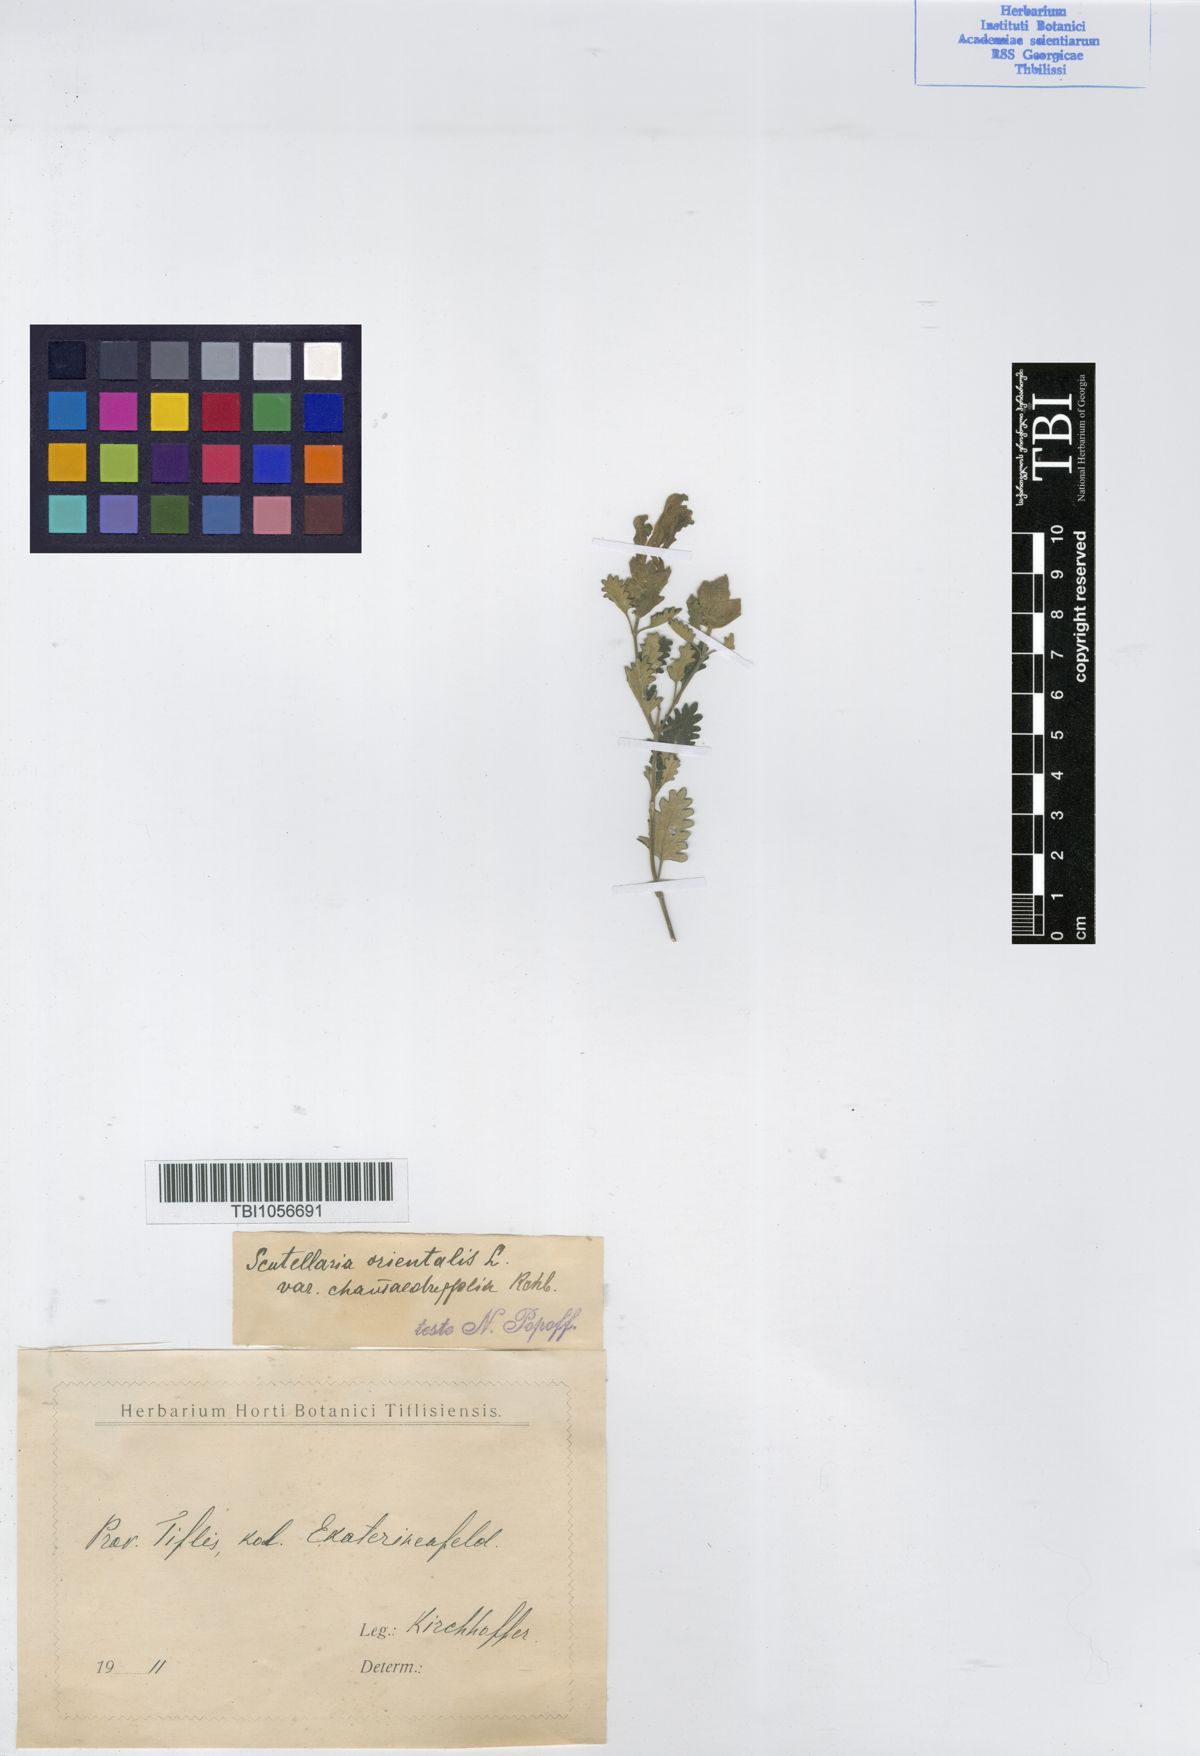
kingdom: Plantae
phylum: Tracheophyta
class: Magnoliopsida
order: Lamiales
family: Lamiaceae
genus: Scutellaria
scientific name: Scutellaria orientalis
